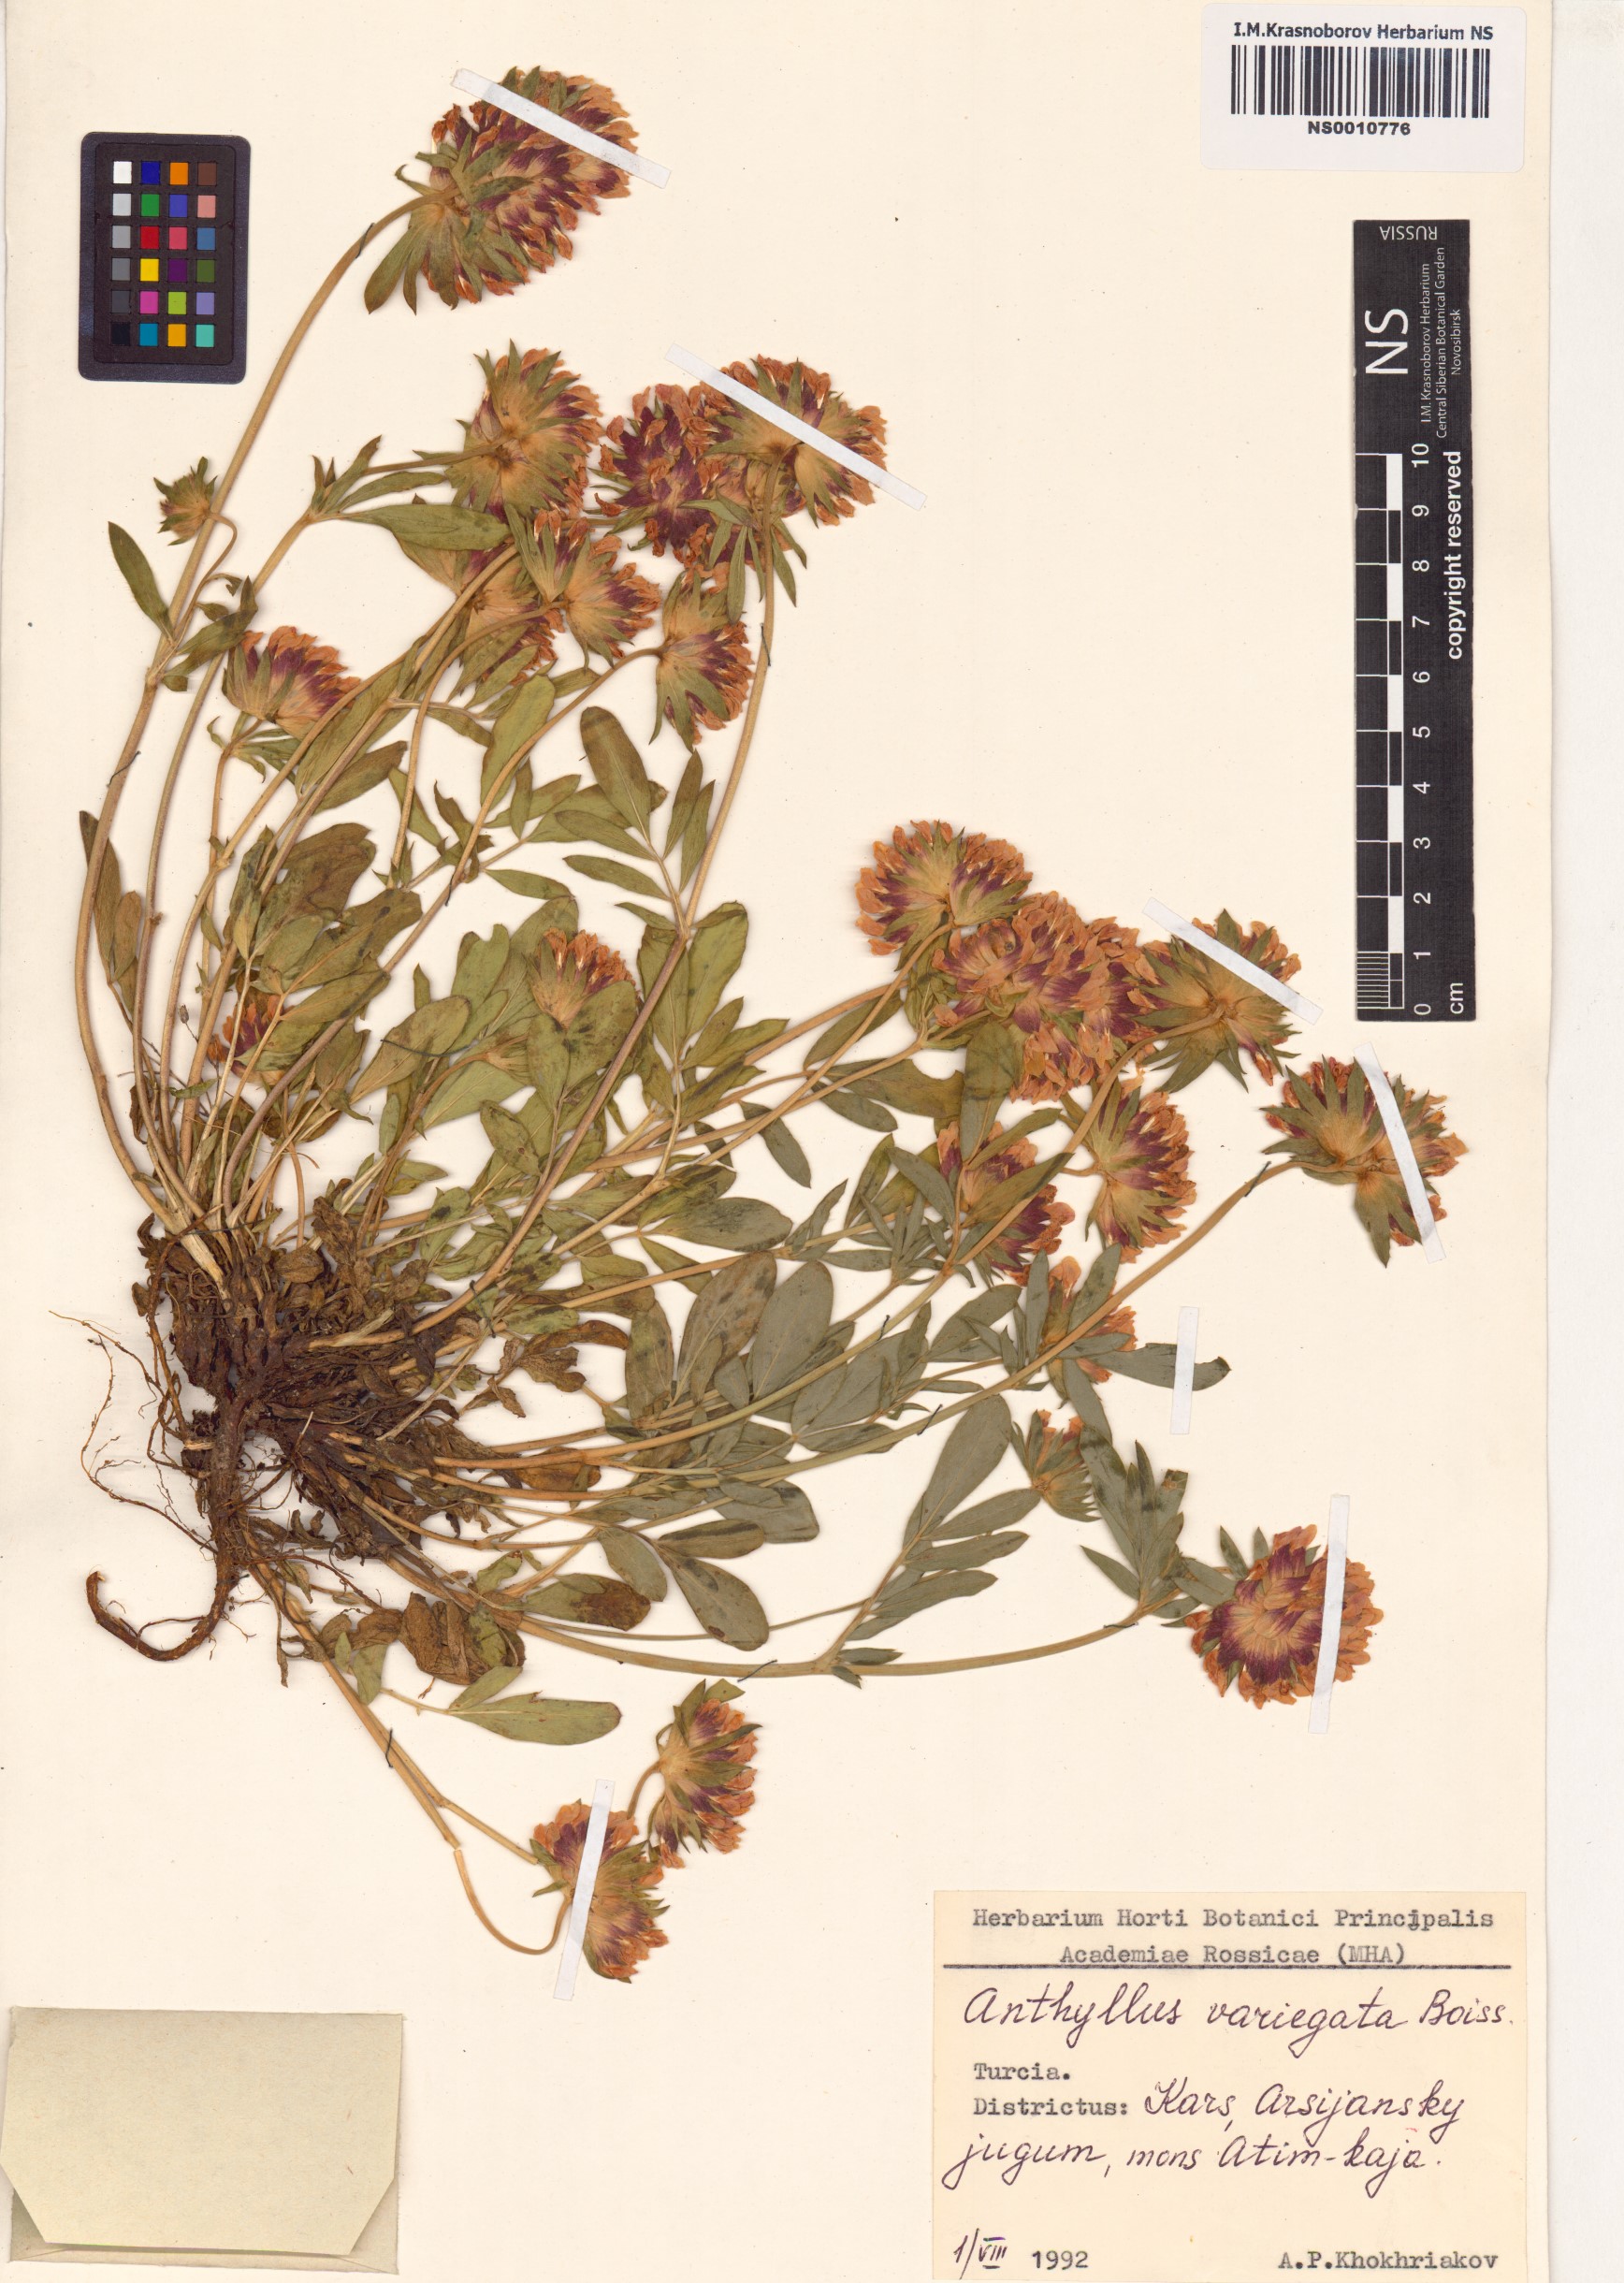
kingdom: Plantae
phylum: Tracheophyta
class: Magnoliopsida
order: Fabales
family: Fabaceae
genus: Anthyllis
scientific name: Anthyllis variegata
